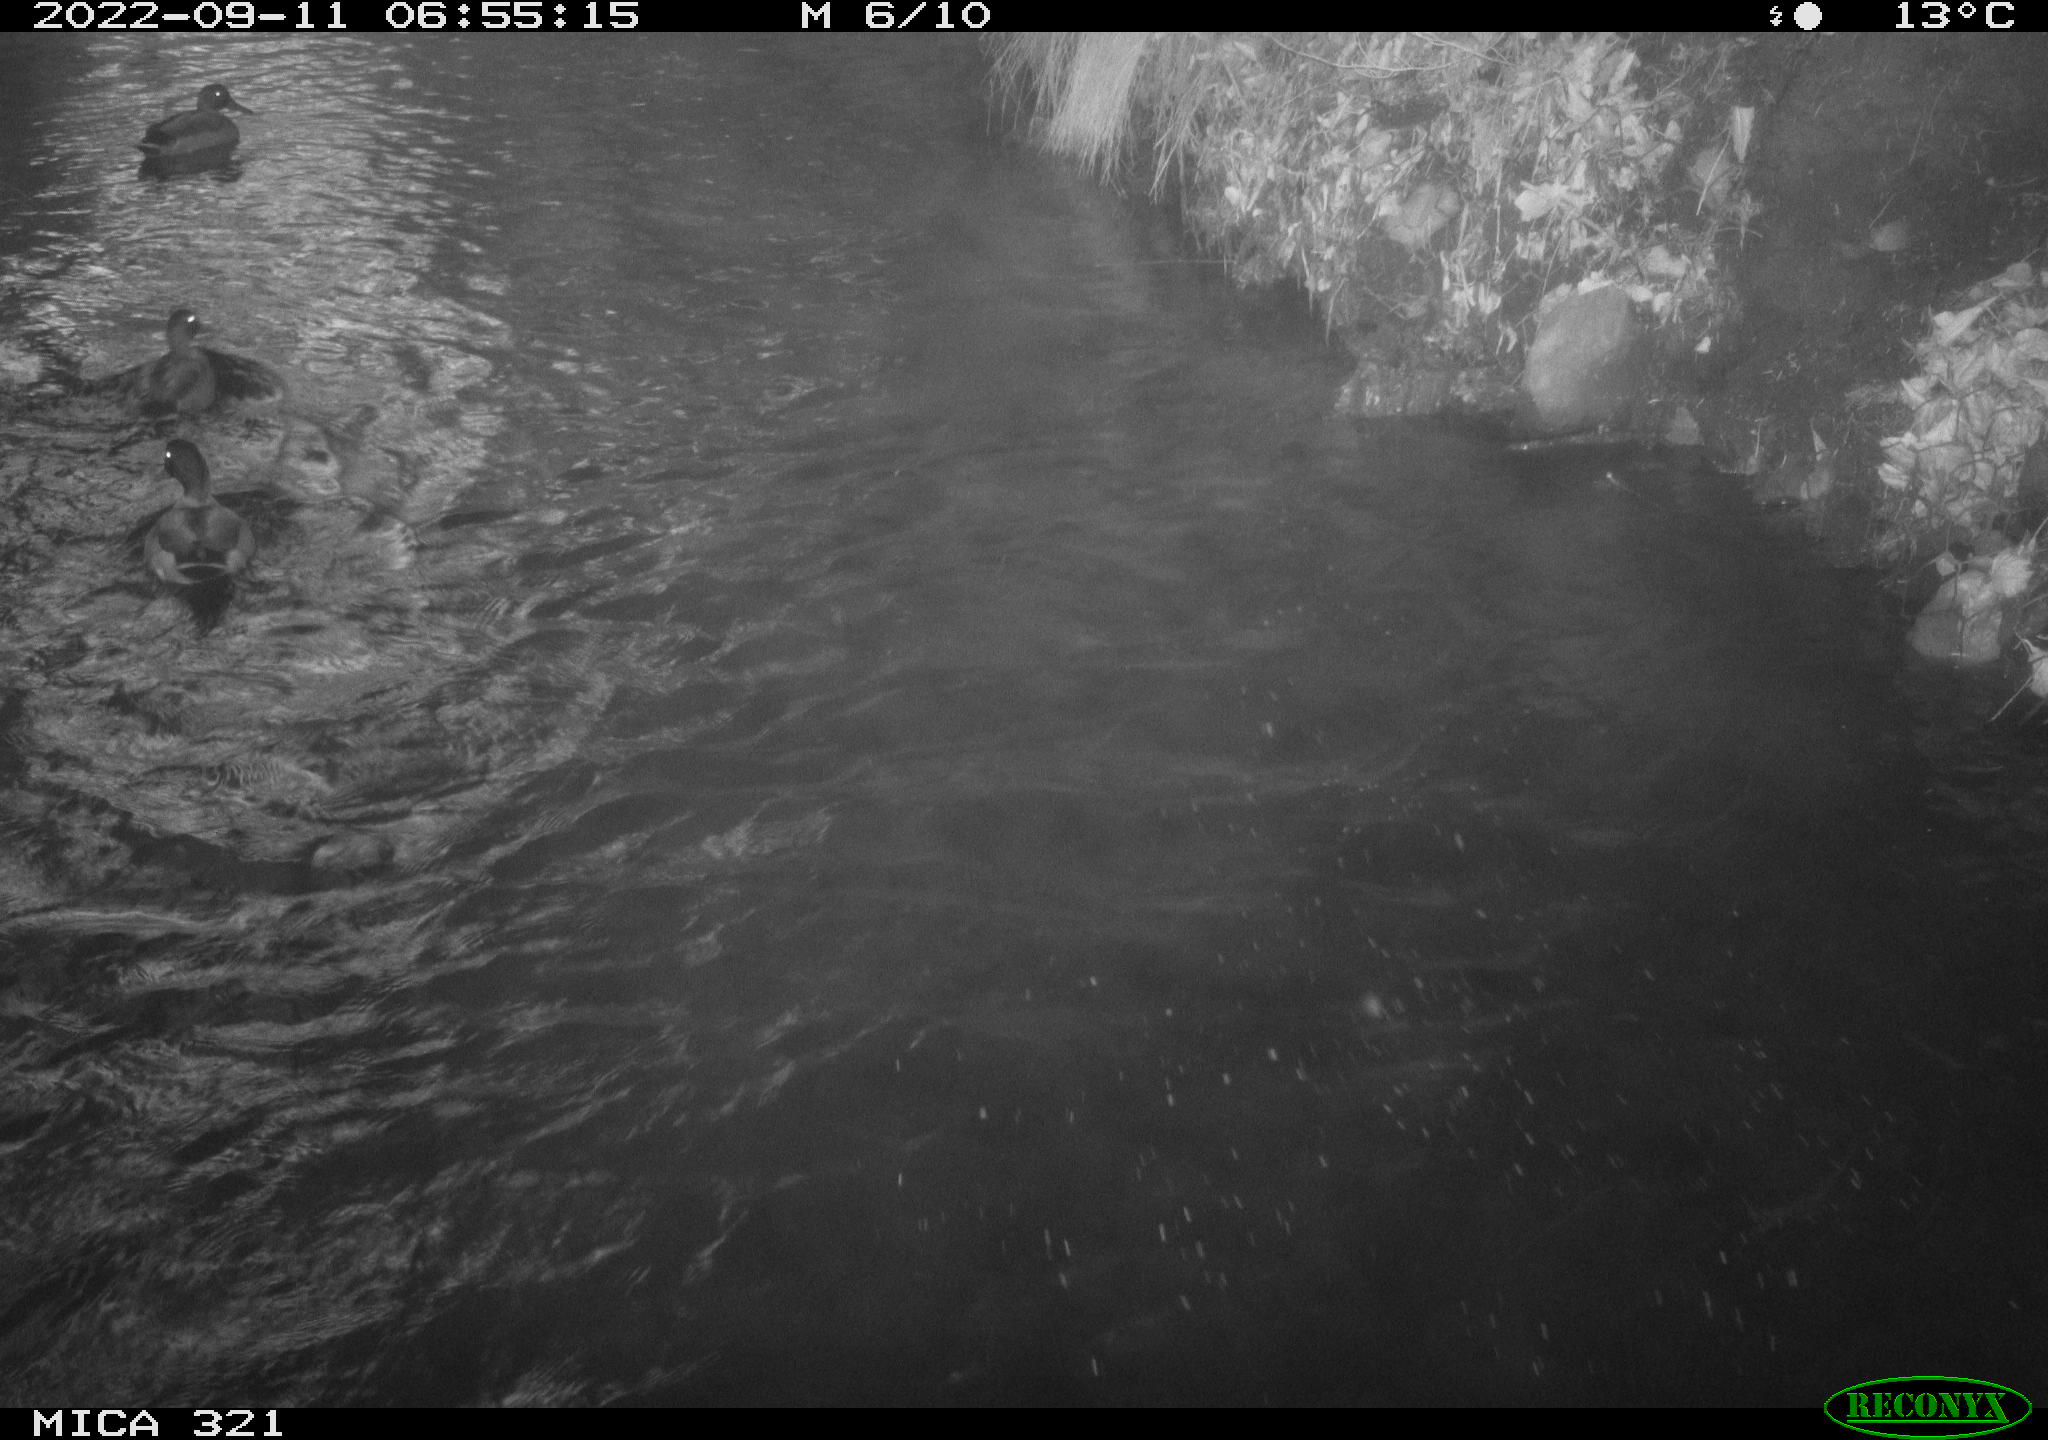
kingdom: Animalia
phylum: Chordata
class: Aves
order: Anseriformes
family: Anatidae
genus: Anas
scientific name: Anas
